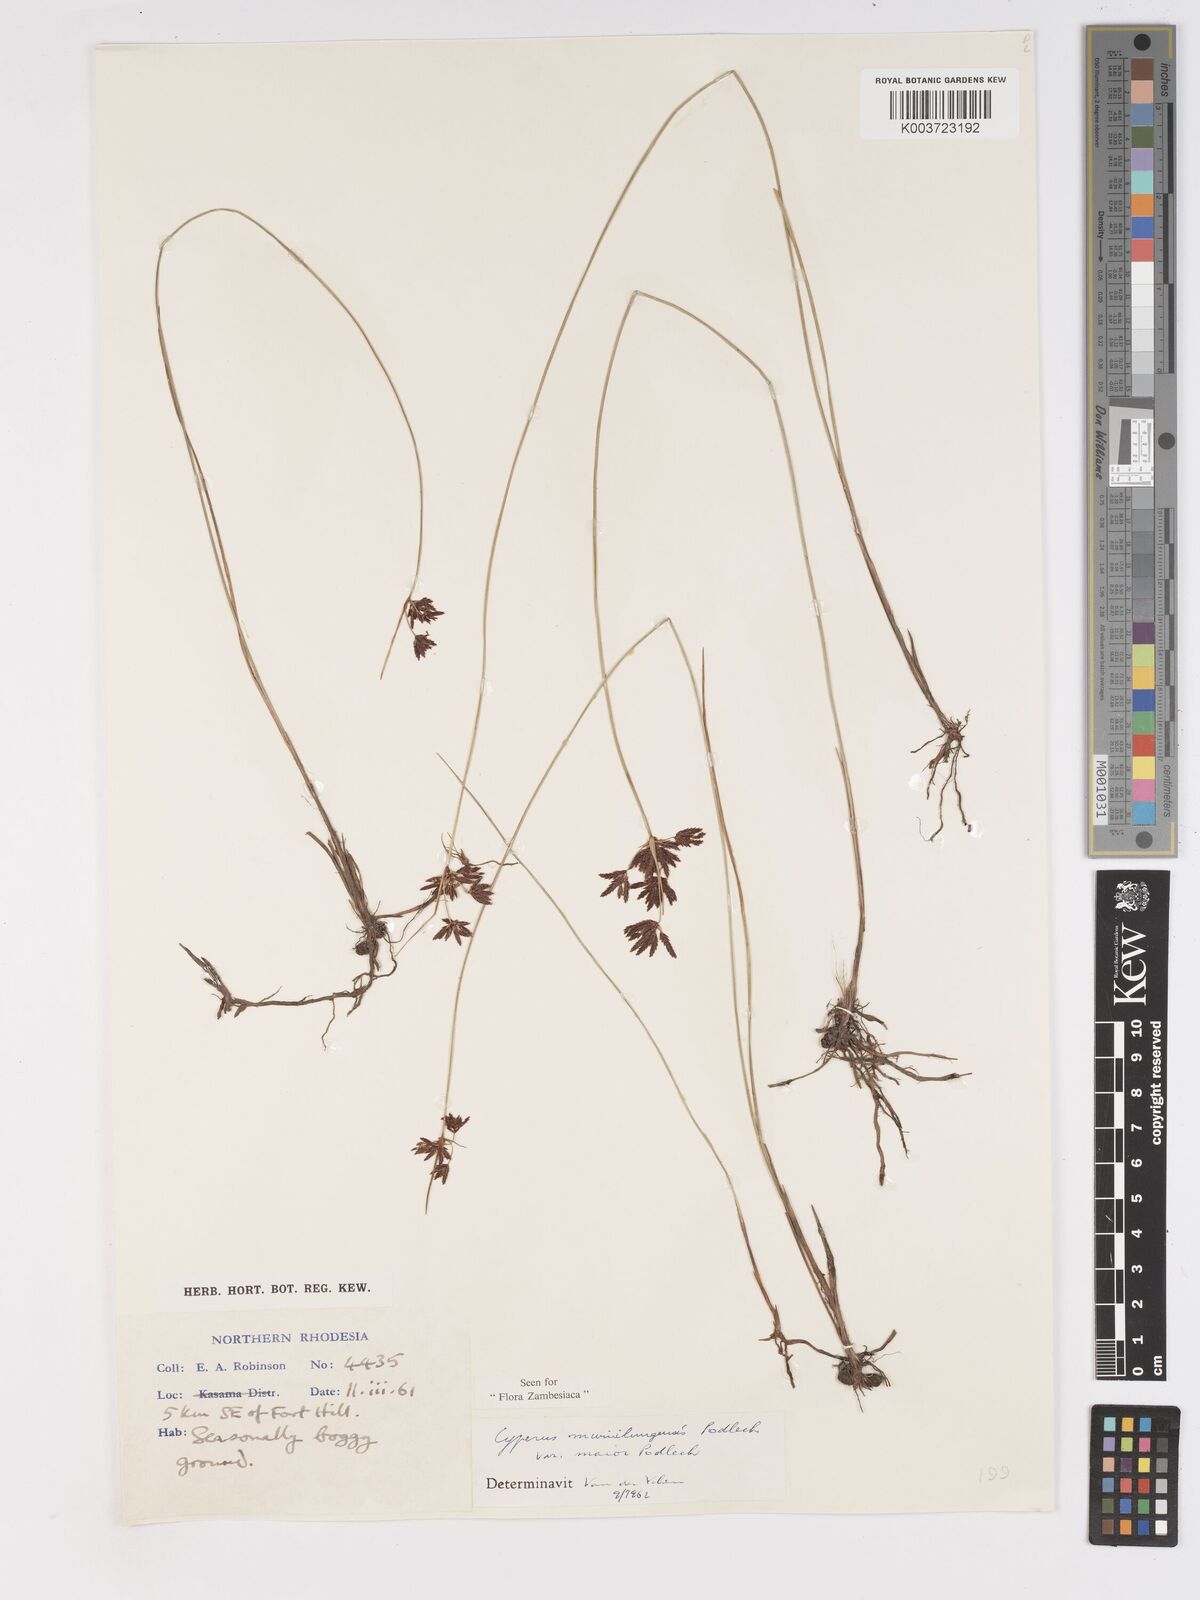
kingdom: Plantae
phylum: Tracheophyta
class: Liliopsida
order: Poales
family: Cyperaceae
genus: Cyperus
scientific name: Cyperus mwinilungensis
